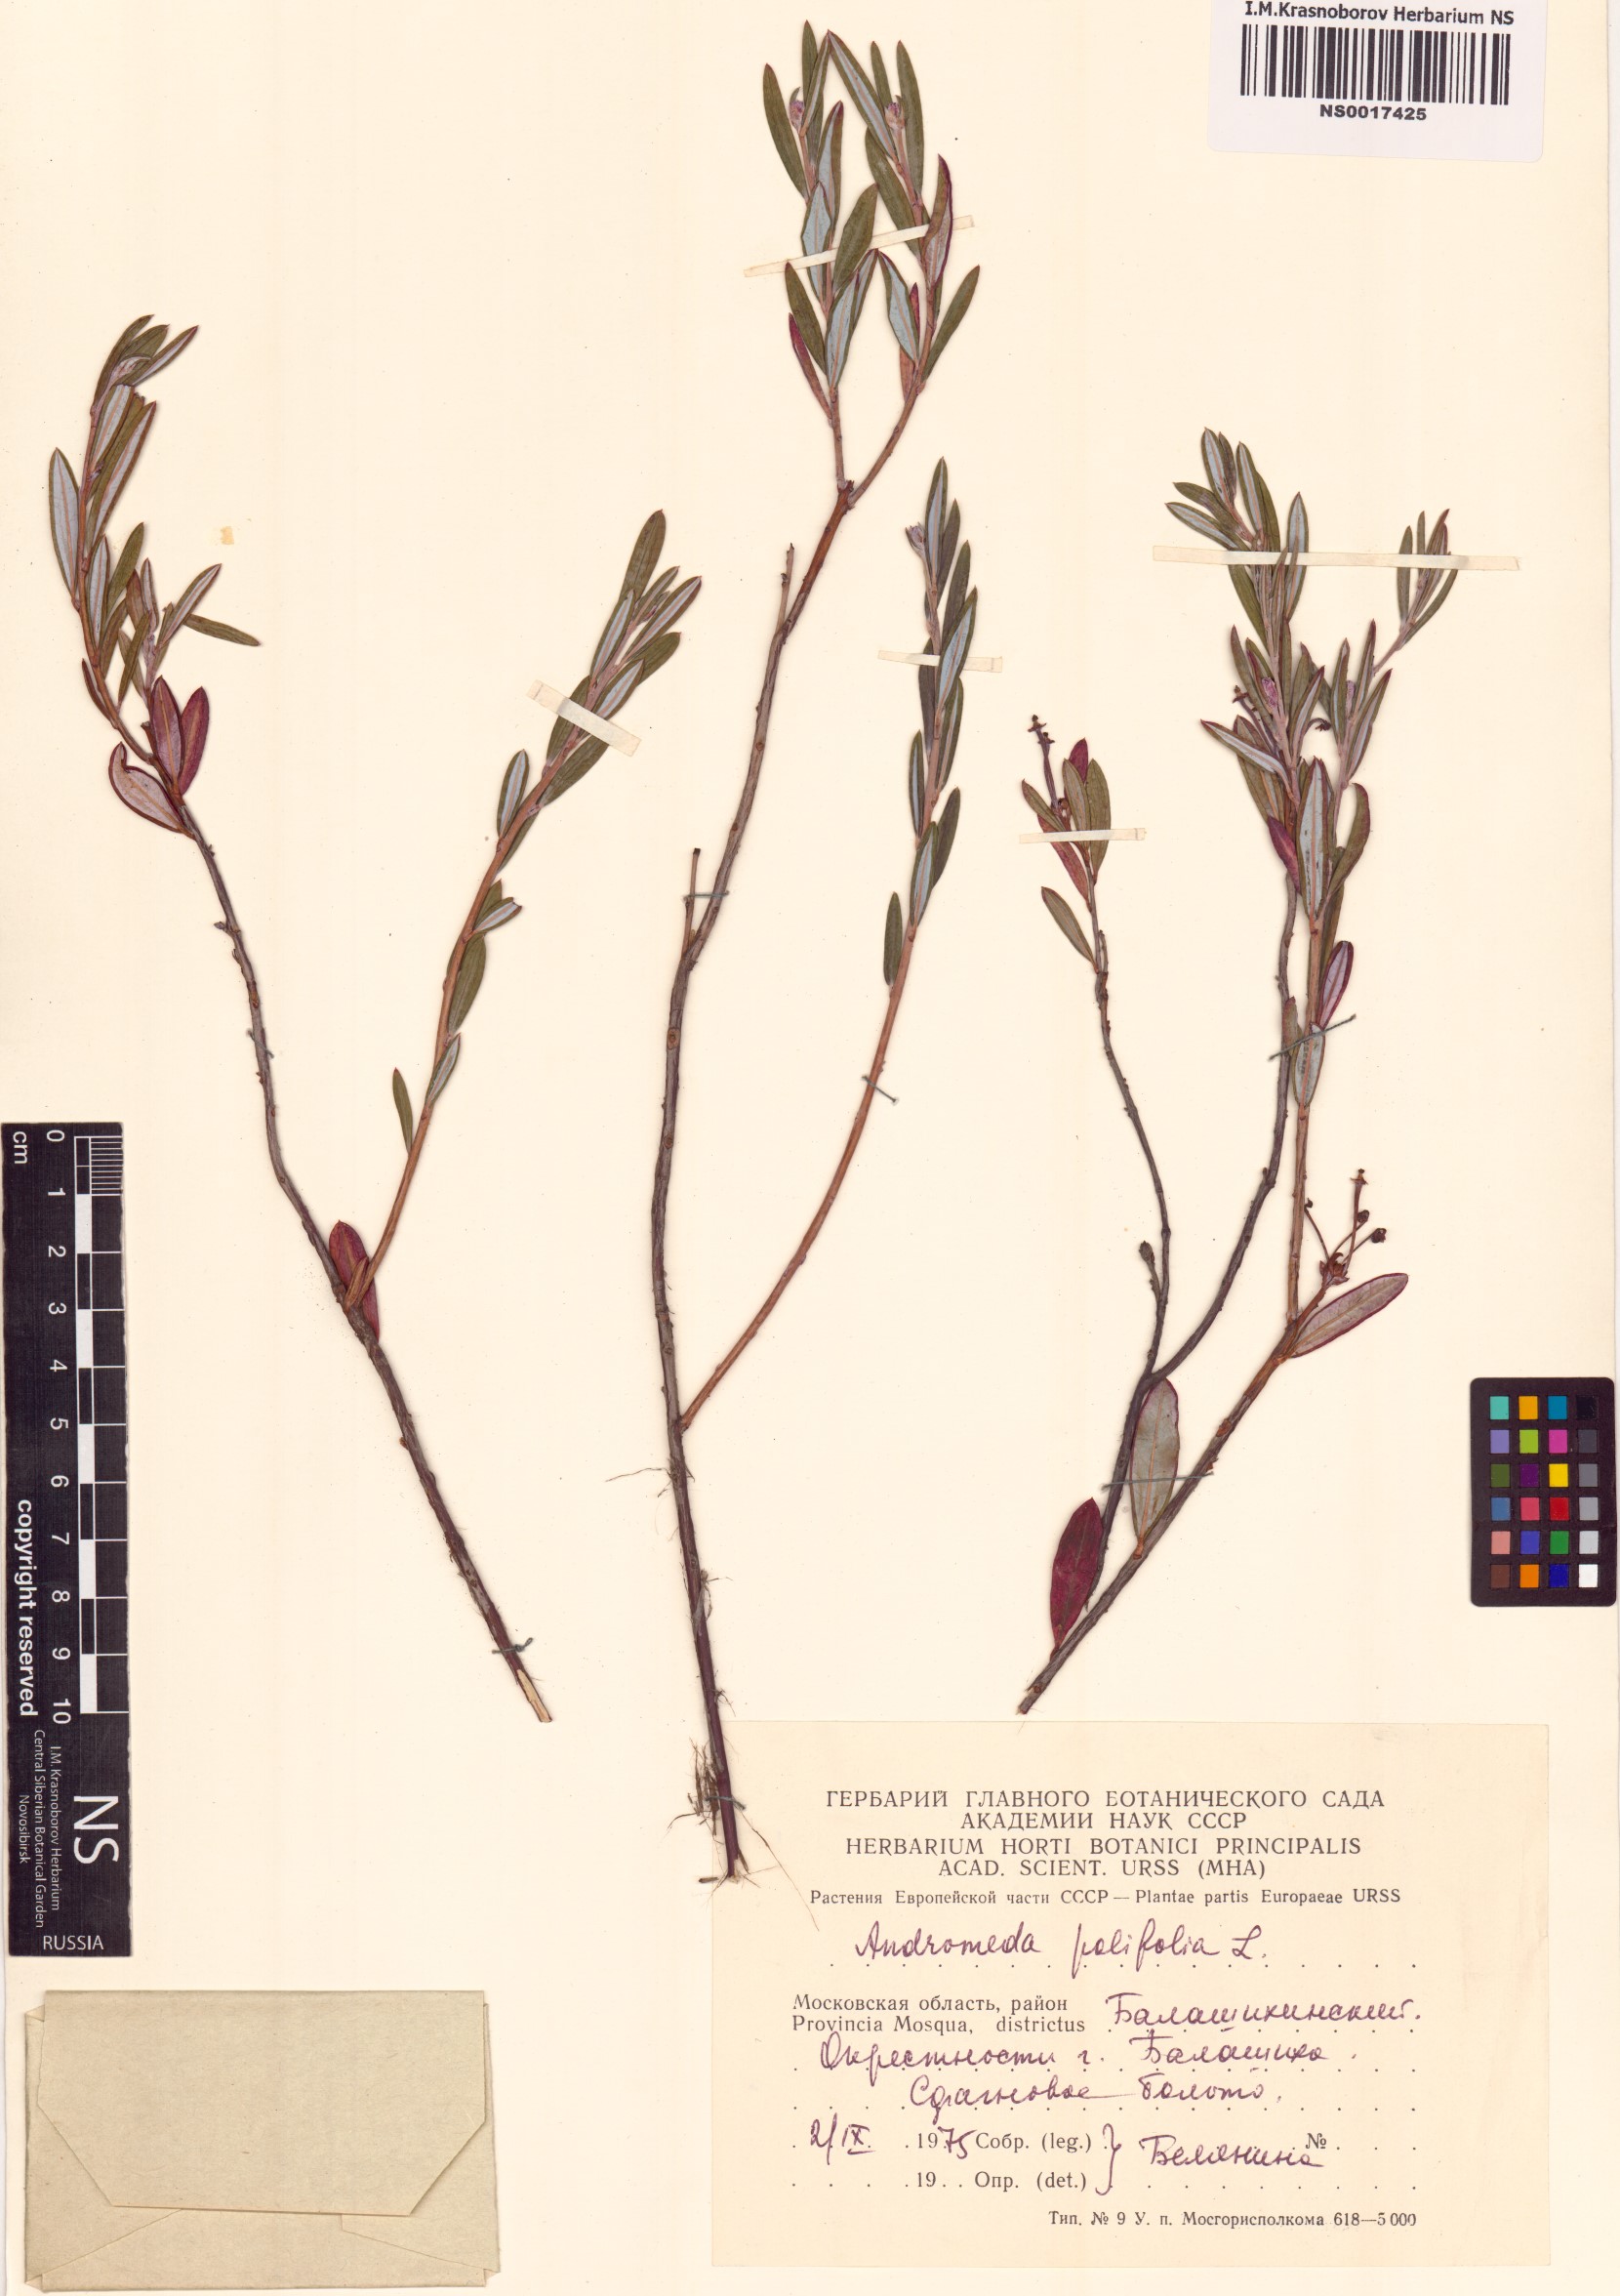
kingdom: Plantae
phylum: Tracheophyta
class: Magnoliopsida
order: Ericales
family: Ericaceae
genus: Andromeda
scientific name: Andromeda polifolia
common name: Bog-rosemary
